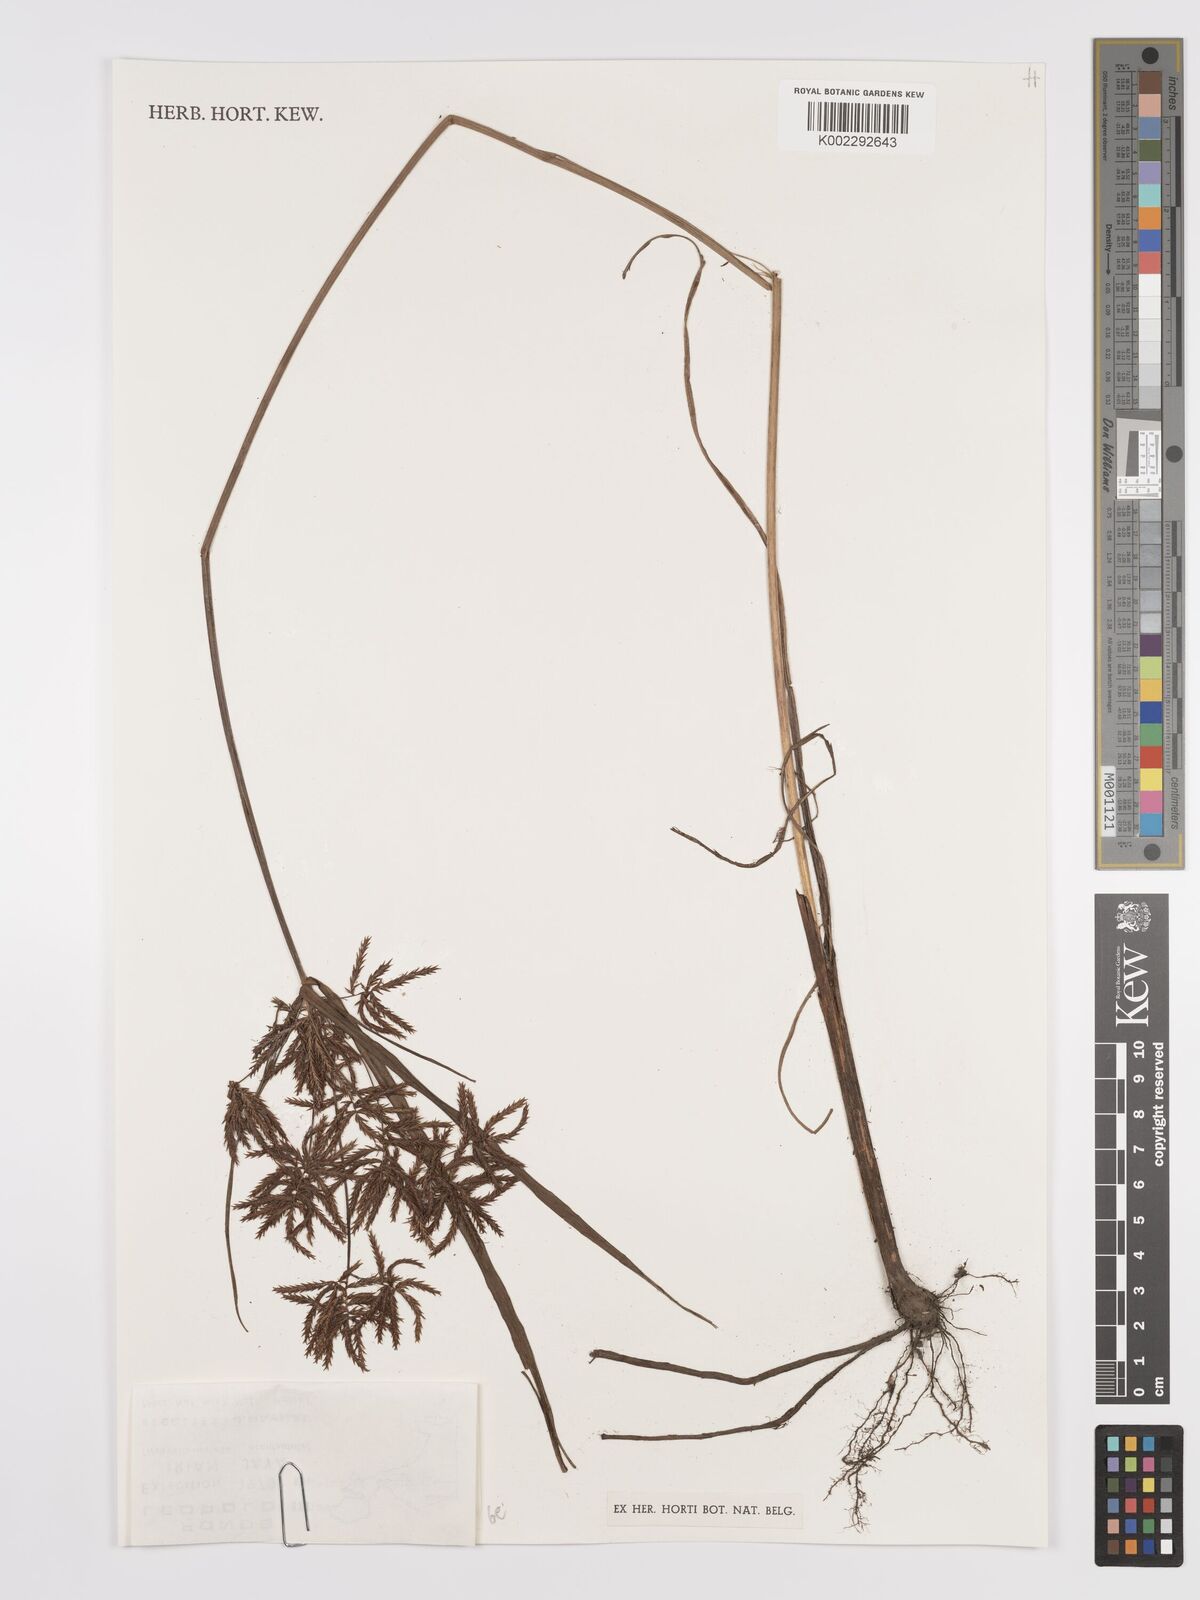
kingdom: Plantae
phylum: Tracheophyta
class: Liliopsida
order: Poales
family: Cyperaceae
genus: Cyperus
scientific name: Cyperus
